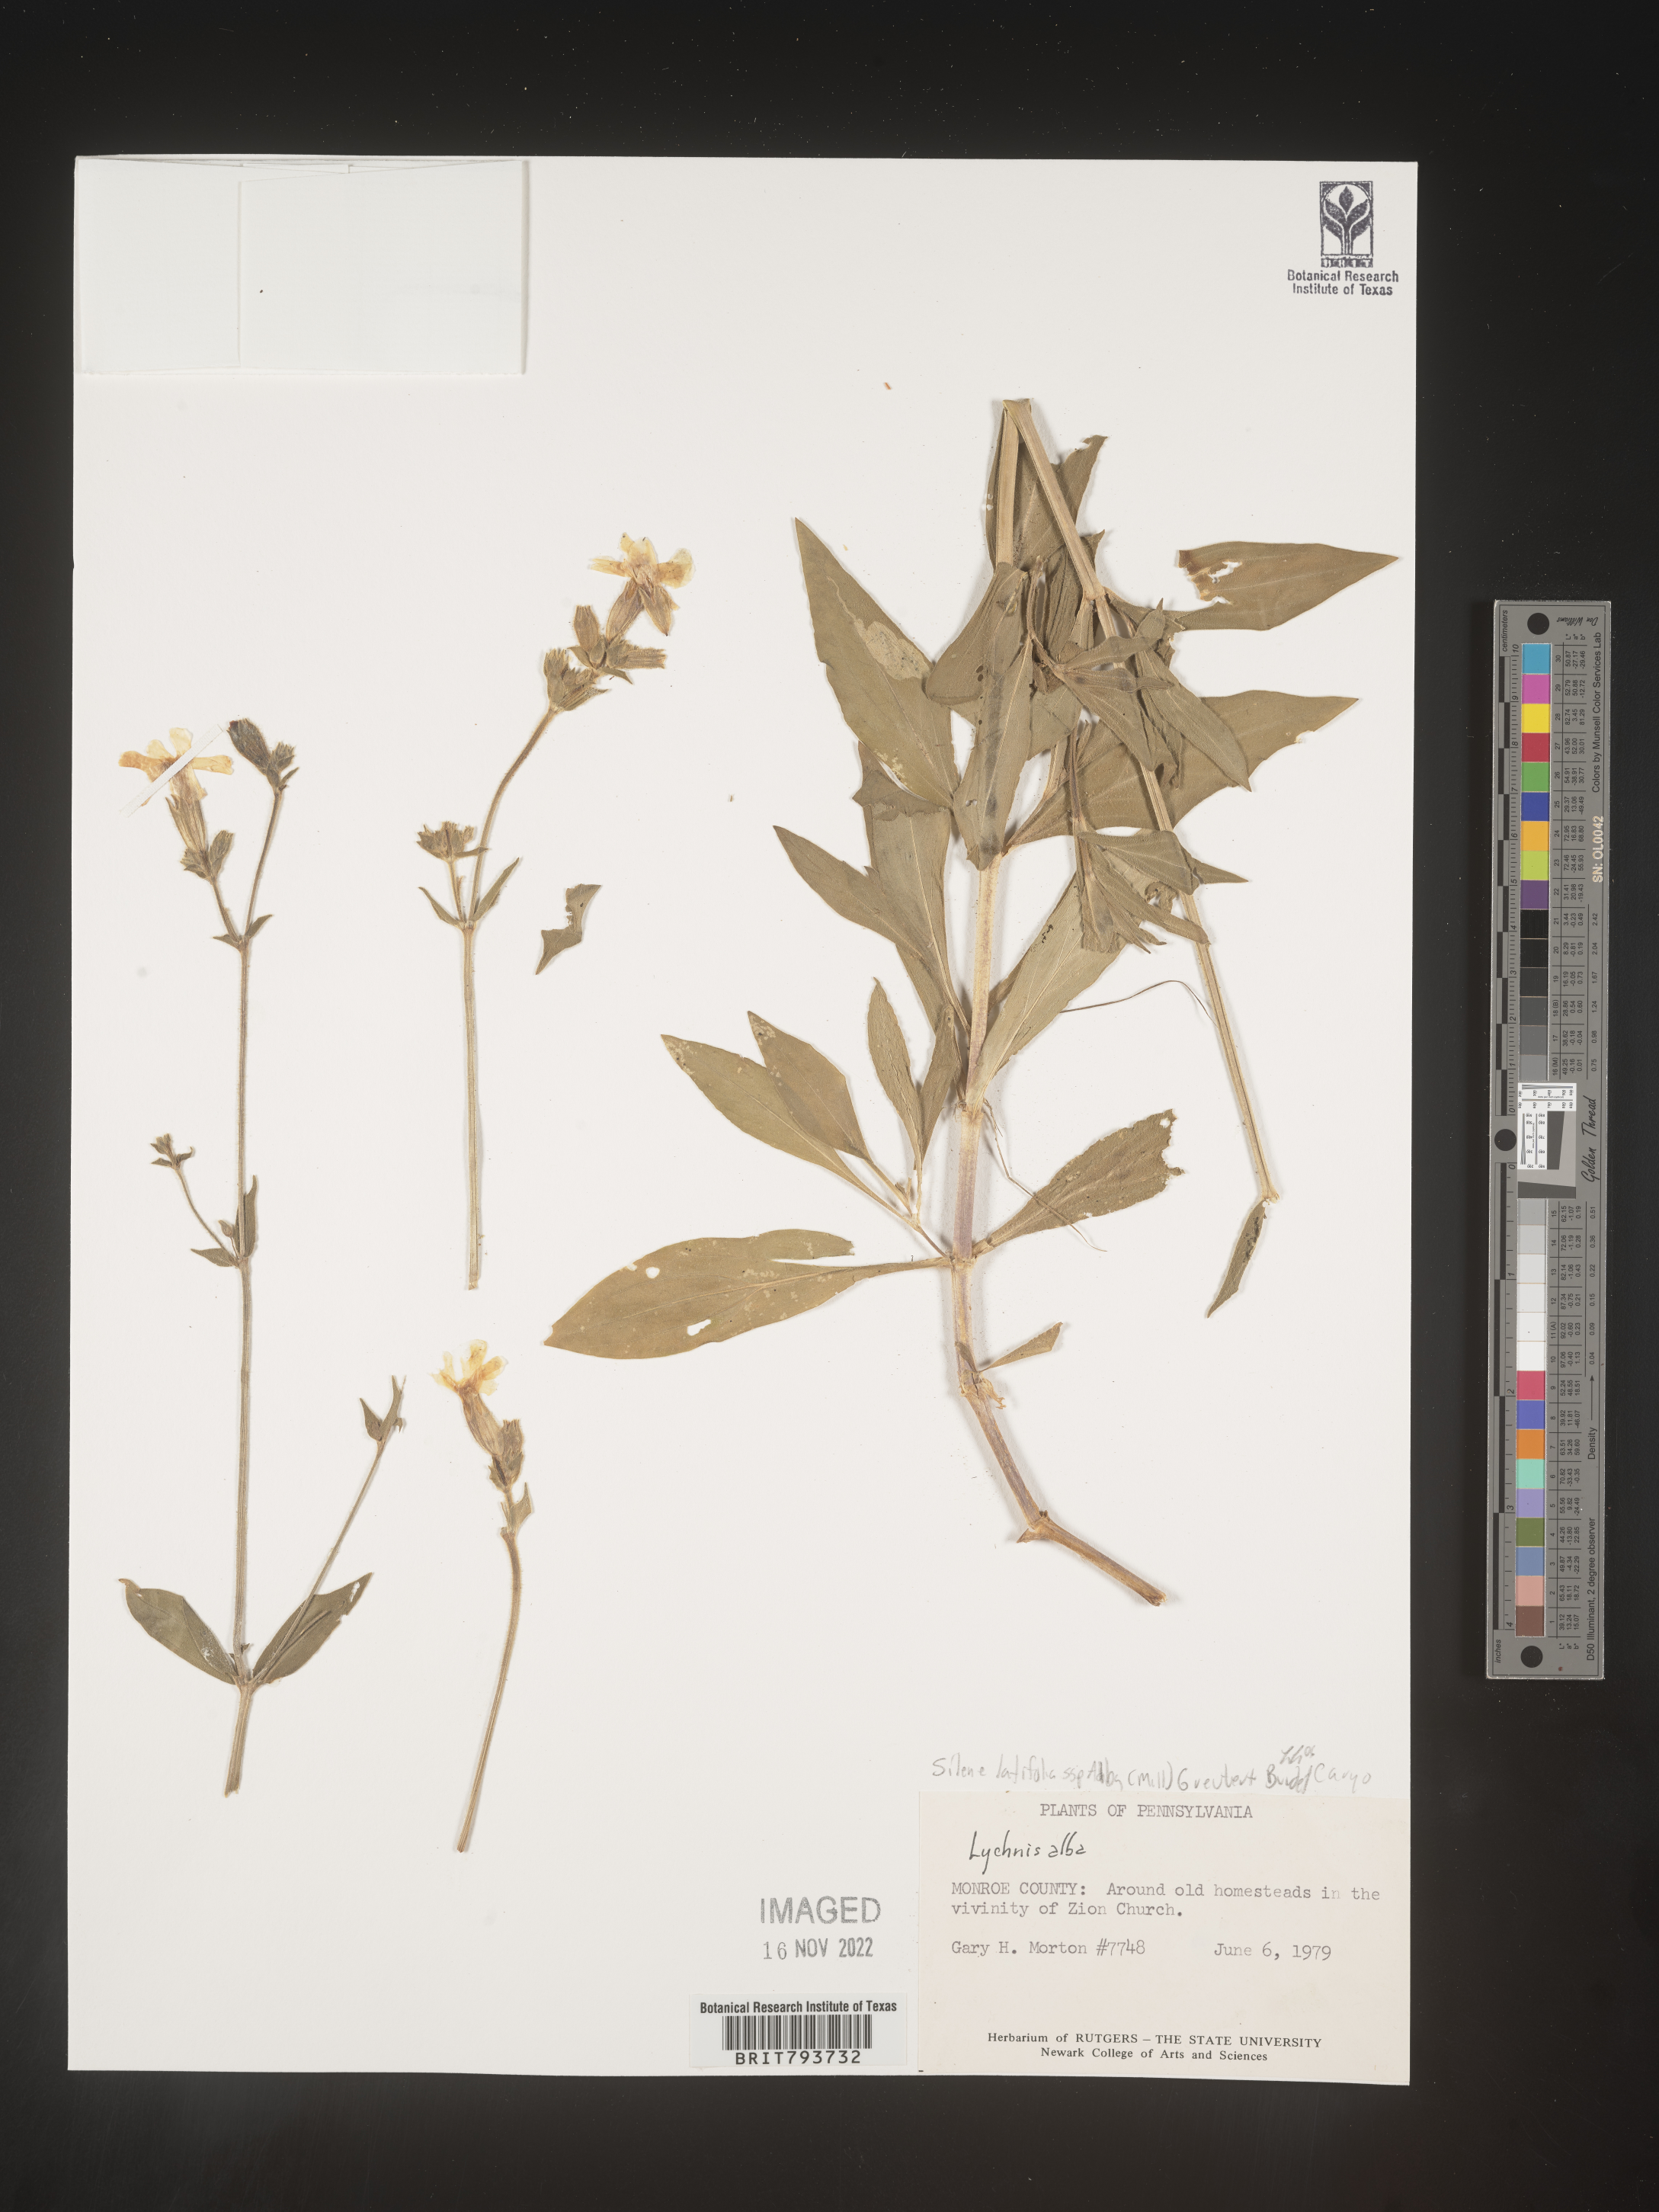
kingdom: Plantae
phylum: Tracheophyta
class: Magnoliopsida
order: Caryophyllales
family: Caryophyllaceae
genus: Silene
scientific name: Silene latifolia
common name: White campion
